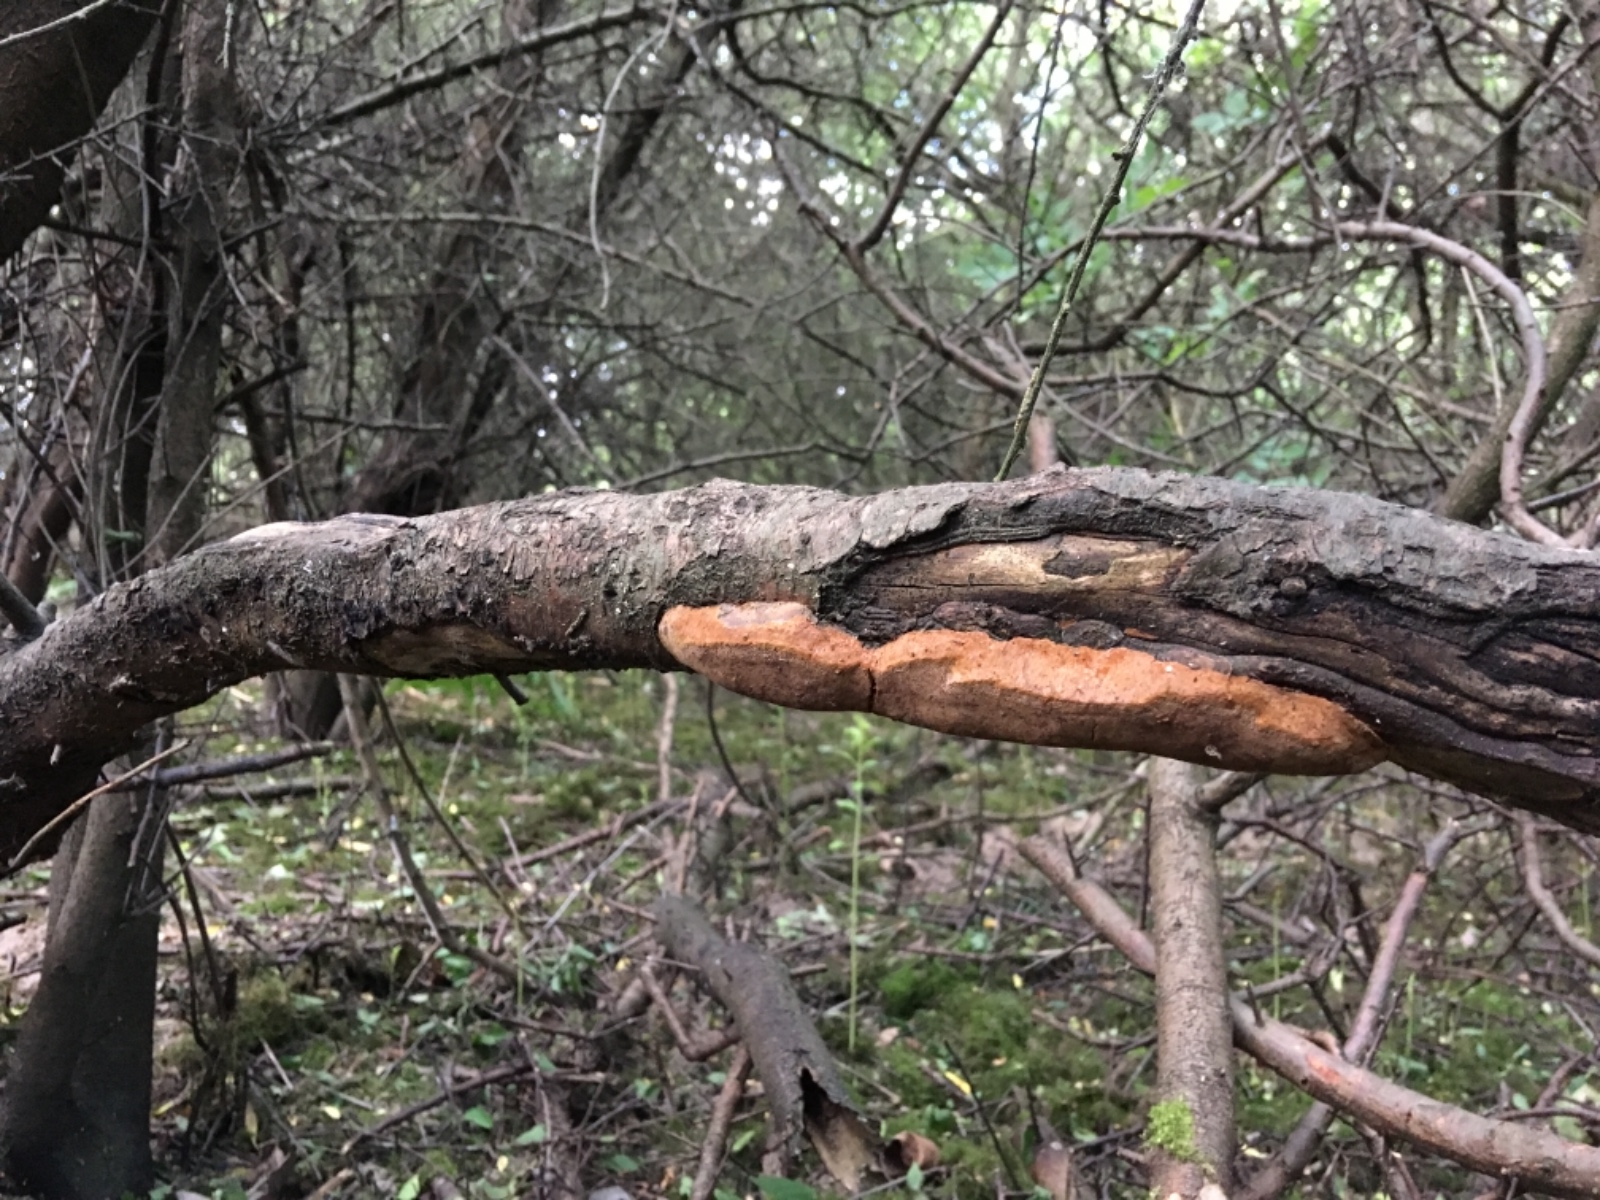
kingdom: Fungi
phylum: Basidiomycota
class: Agaricomycetes
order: Hymenochaetales
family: Hymenochaetaceae
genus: Phellinus
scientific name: Phellinus pomaceus
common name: blomme-ildporesvamp
